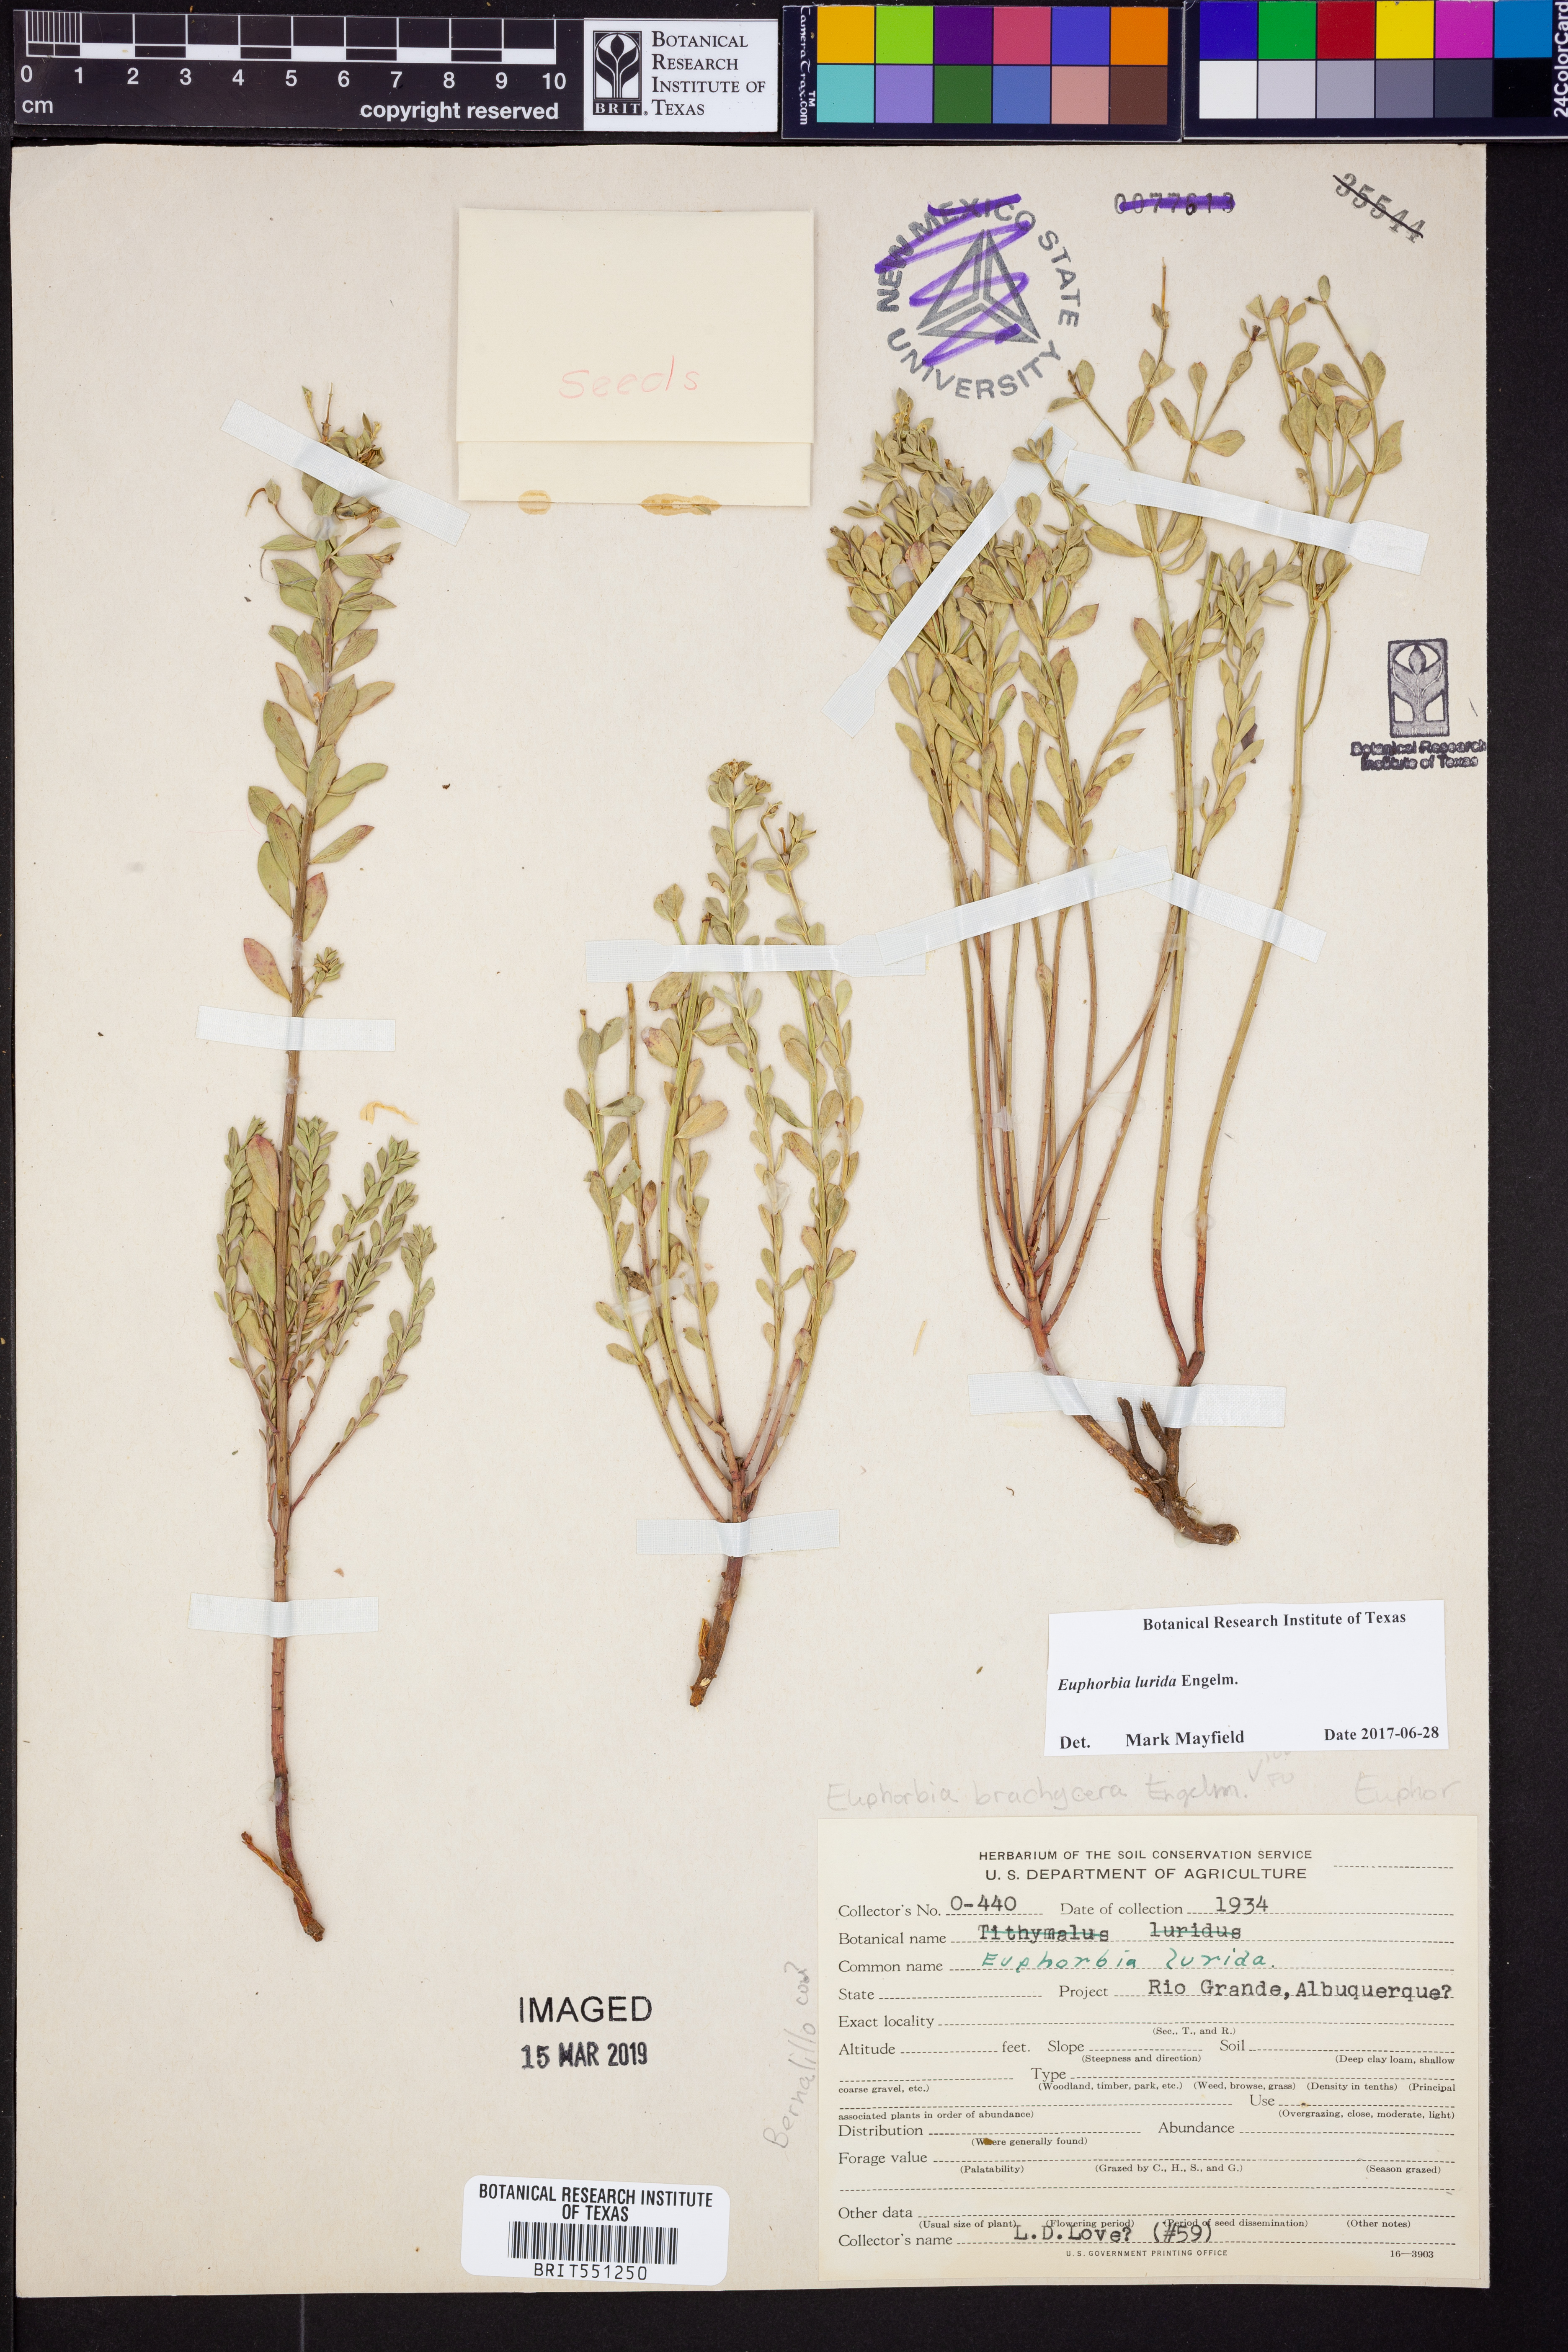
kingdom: Plantae
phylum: Tracheophyta
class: Magnoliopsida
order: Malpighiales
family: Euphorbiaceae
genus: Euphorbia
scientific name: Euphorbia lurida
